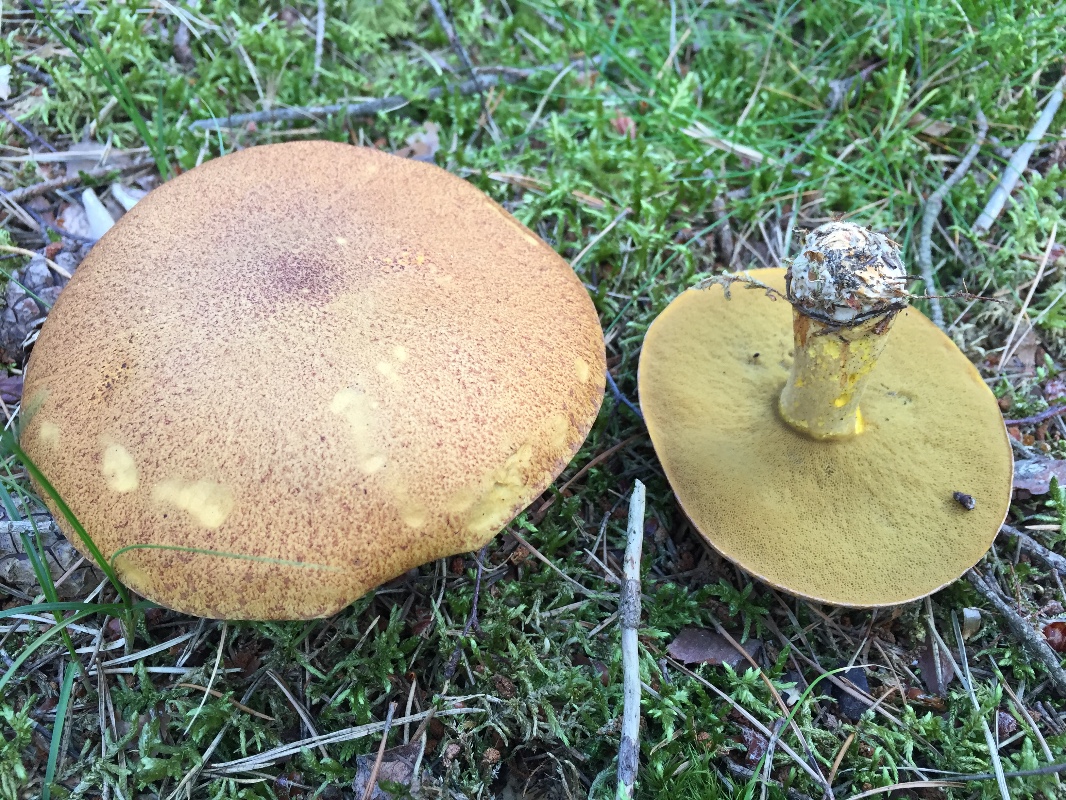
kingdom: Fungi
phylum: Basidiomycota
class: Agaricomycetes
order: Boletales
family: Suillaceae
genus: Suillus
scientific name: Suillus variegatus
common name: broget slimrørhat
